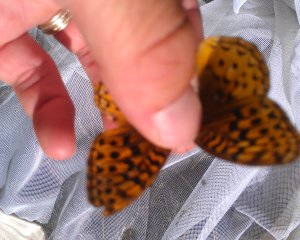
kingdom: Animalia
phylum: Arthropoda
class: Insecta
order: Lepidoptera
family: Nymphalidae
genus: Speyeria
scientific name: Speyeria cybele
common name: Great Spangled Fritillary
